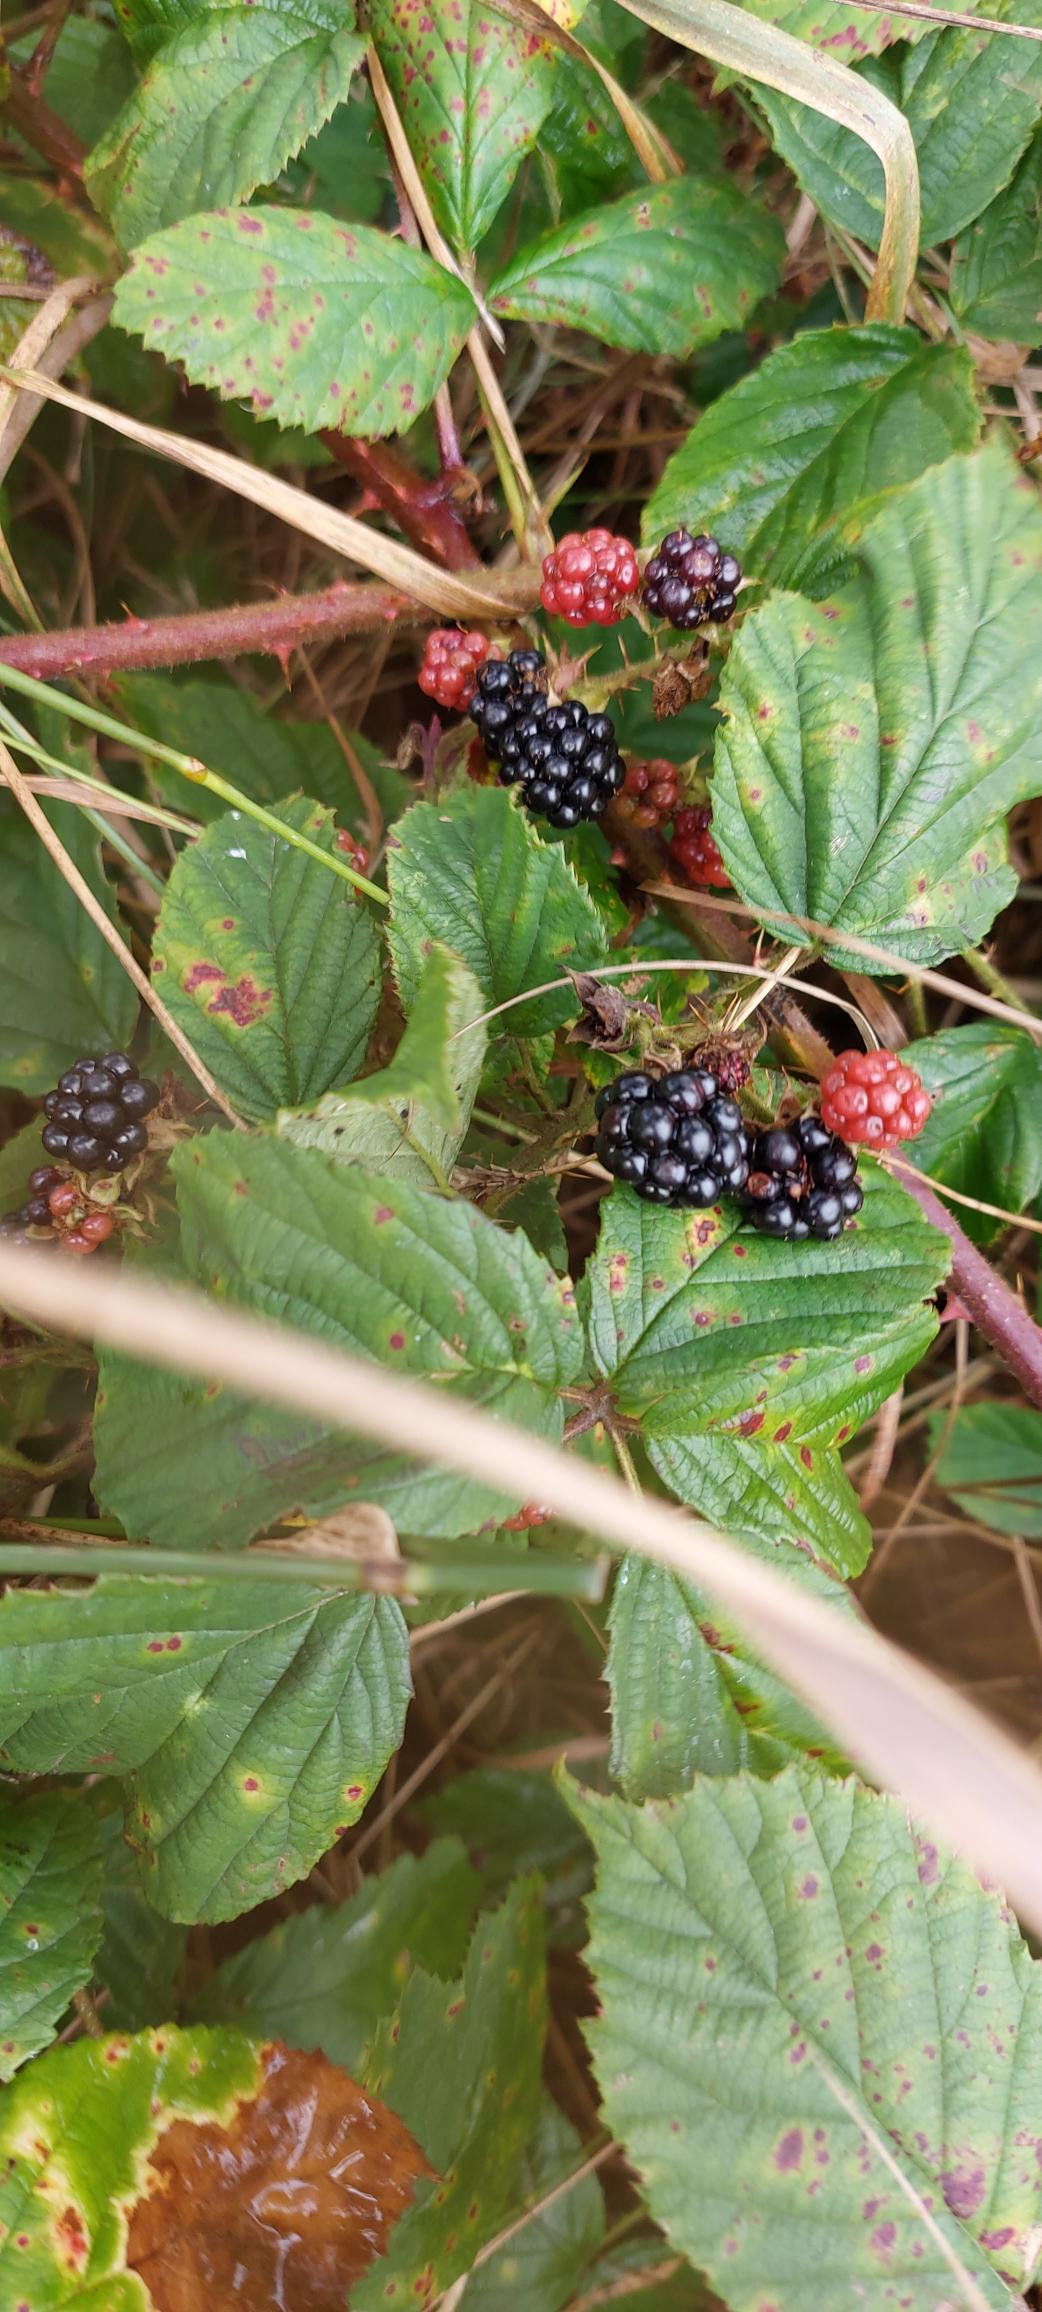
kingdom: Plantae
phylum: Tracheophyta
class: Magnoliopsida
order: Rosales
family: Rosaceae
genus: Rubus
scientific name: Rubus
